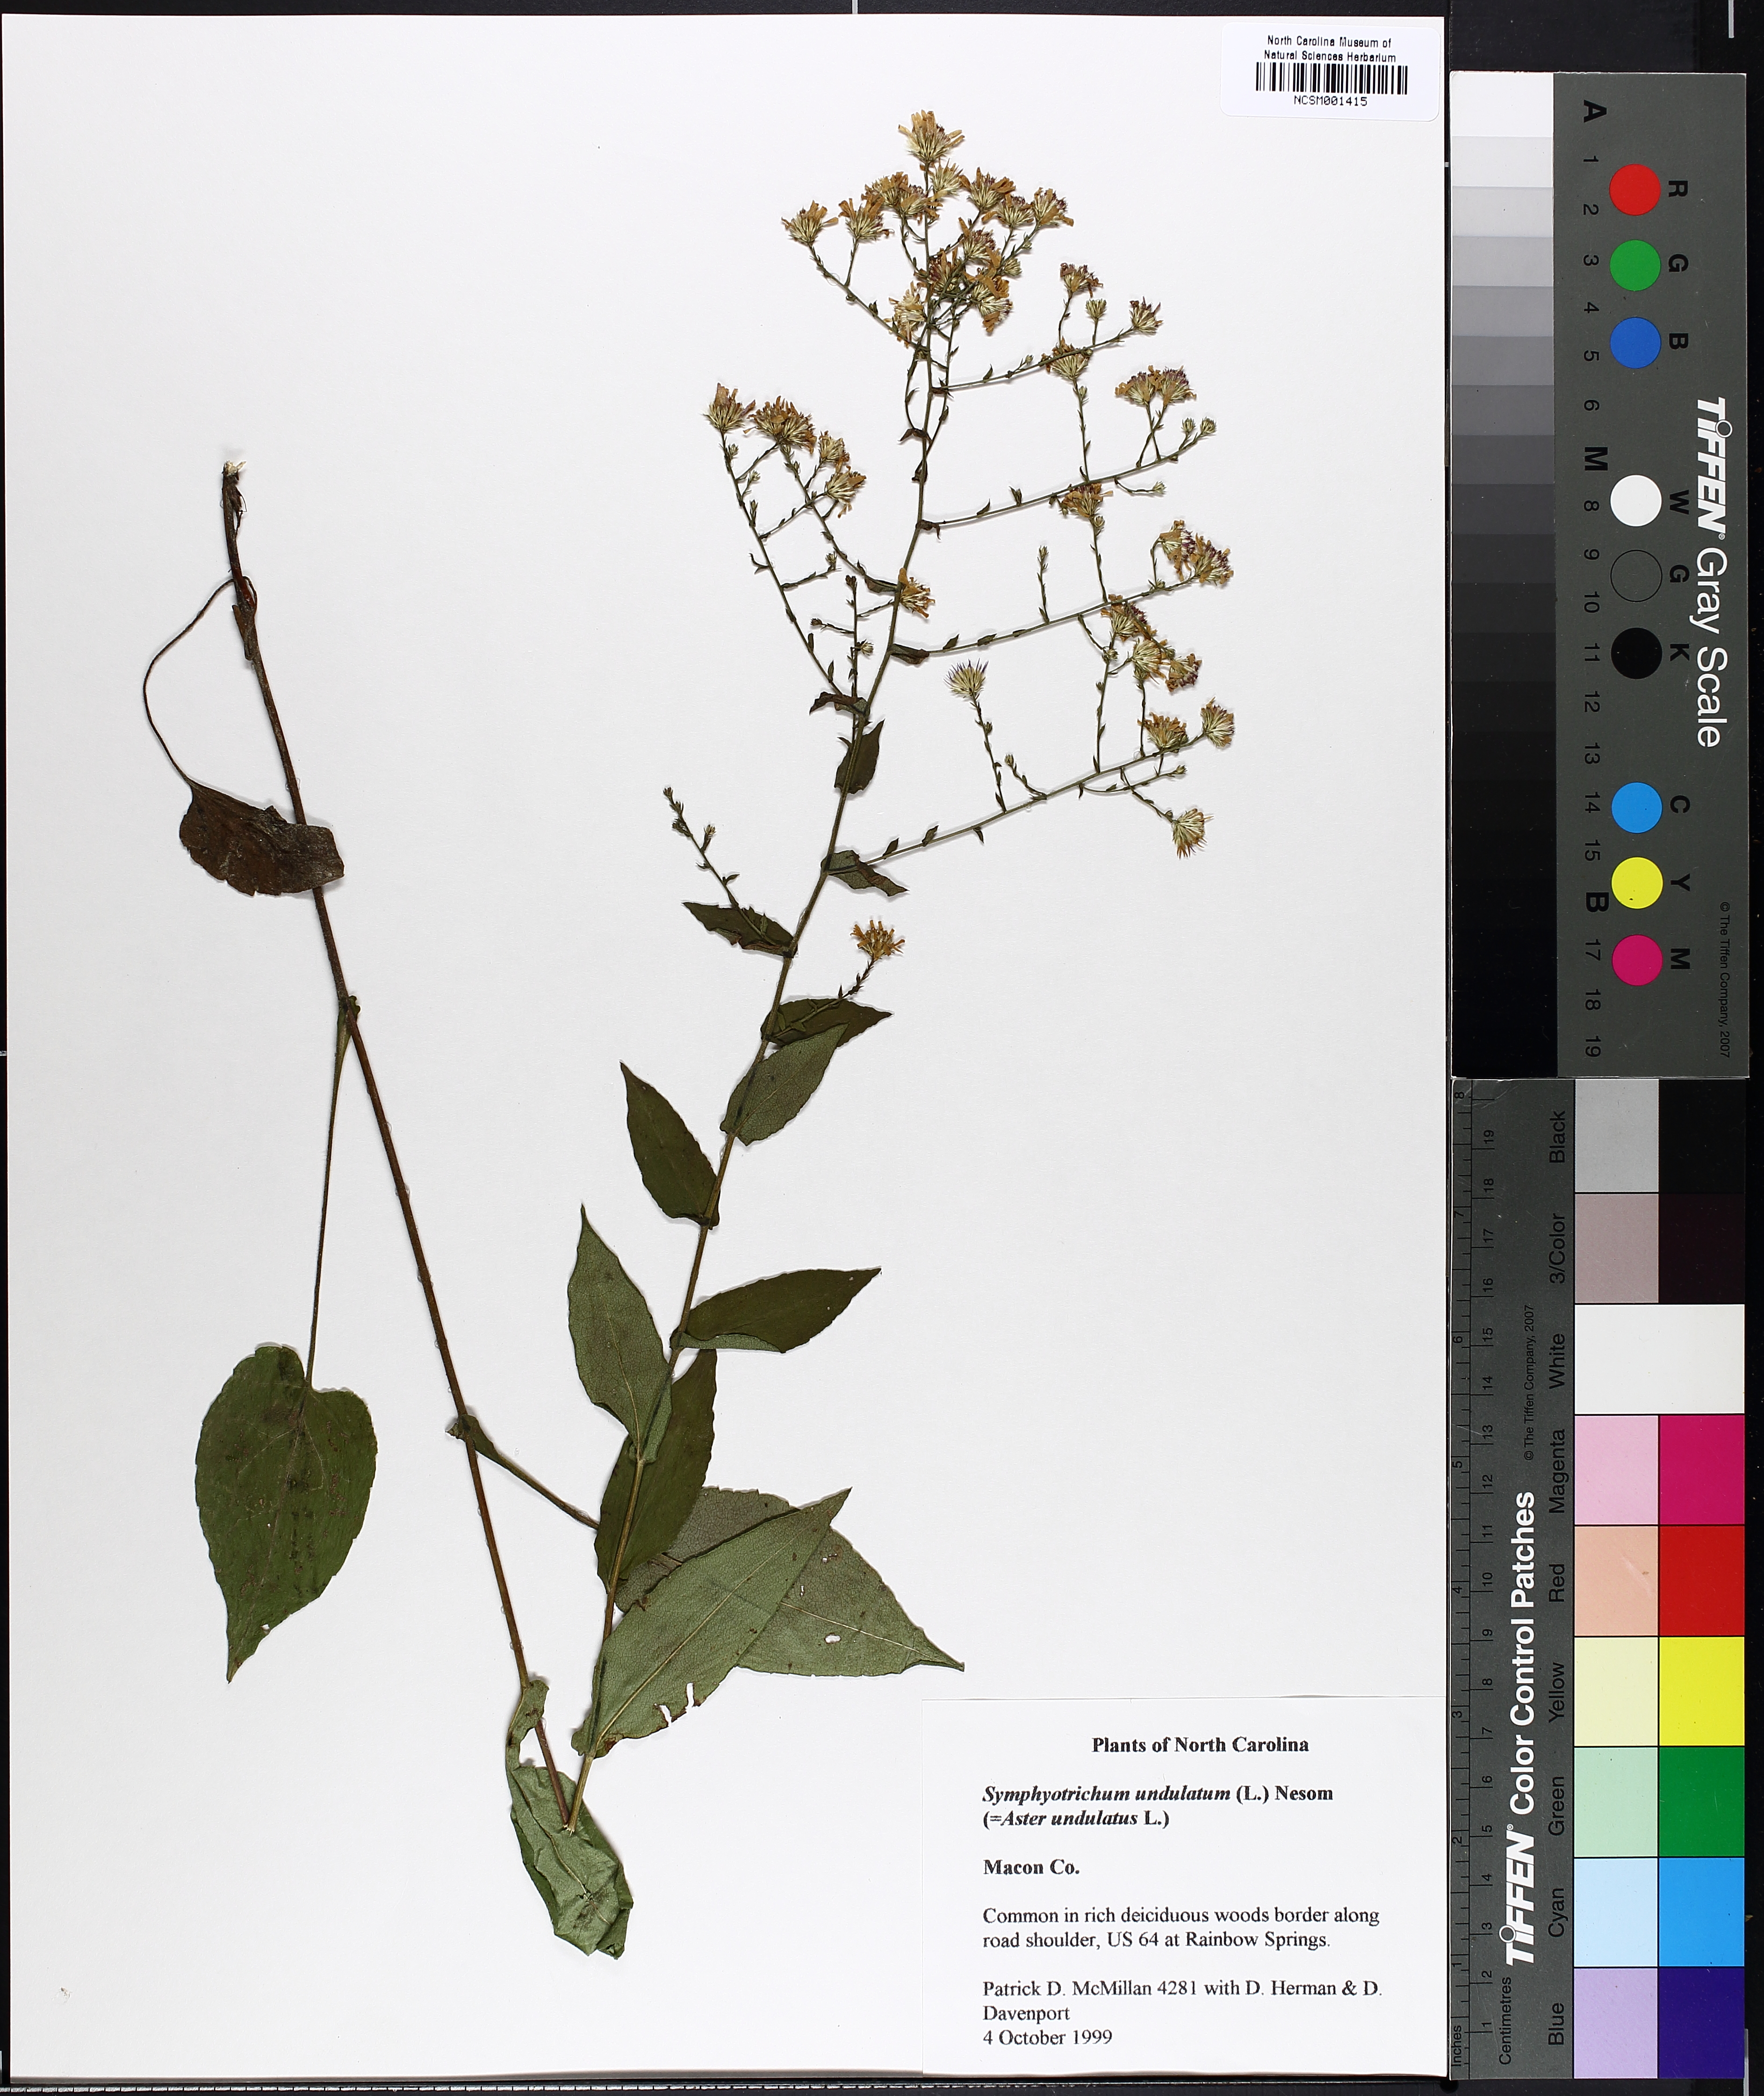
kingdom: Plantae
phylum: Tracheophyta
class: Magnoliopsida
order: Asterales
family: Asteraceae
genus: Symphyotrichum
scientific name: Symphyotrichum undulatum
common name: Clasping heart-leaf aster
